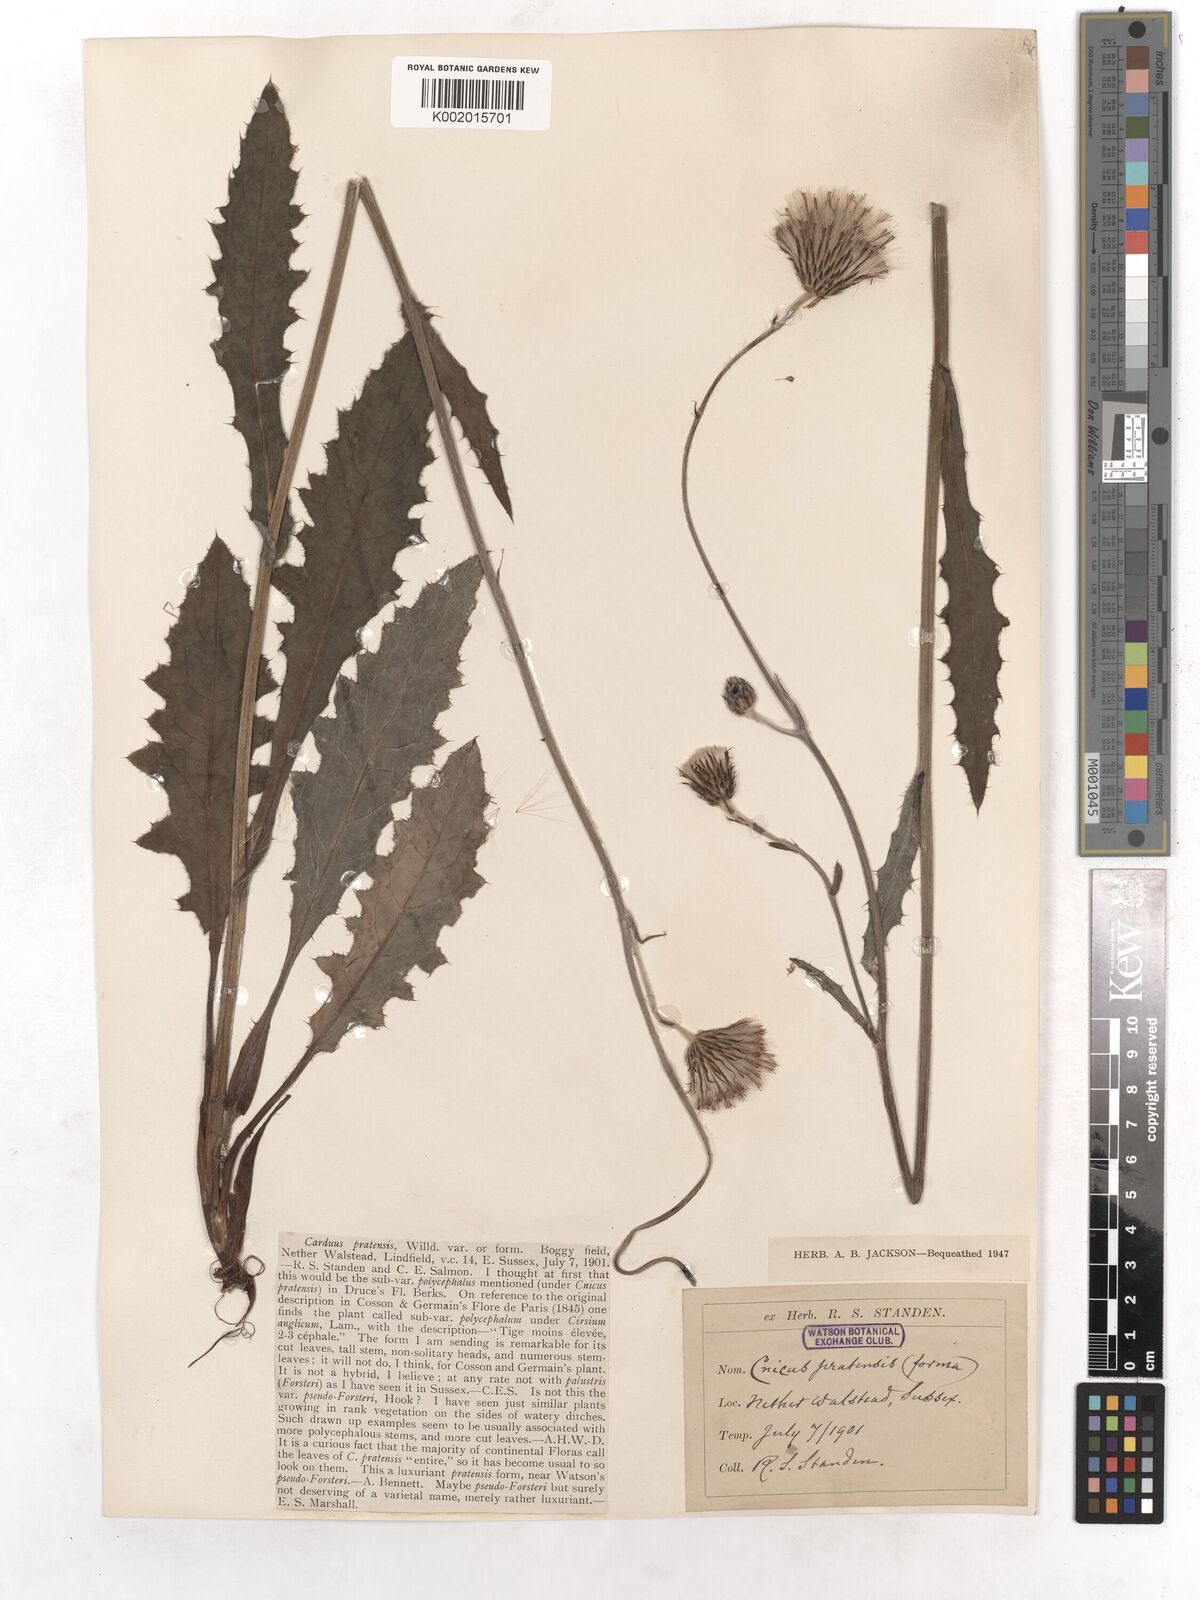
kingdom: Plantae
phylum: Tracheophyta
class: Magnoliopsida
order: Asterales
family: Asteraceae
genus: Cirsium
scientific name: Cirsium dissectum
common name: Meadow thistle
